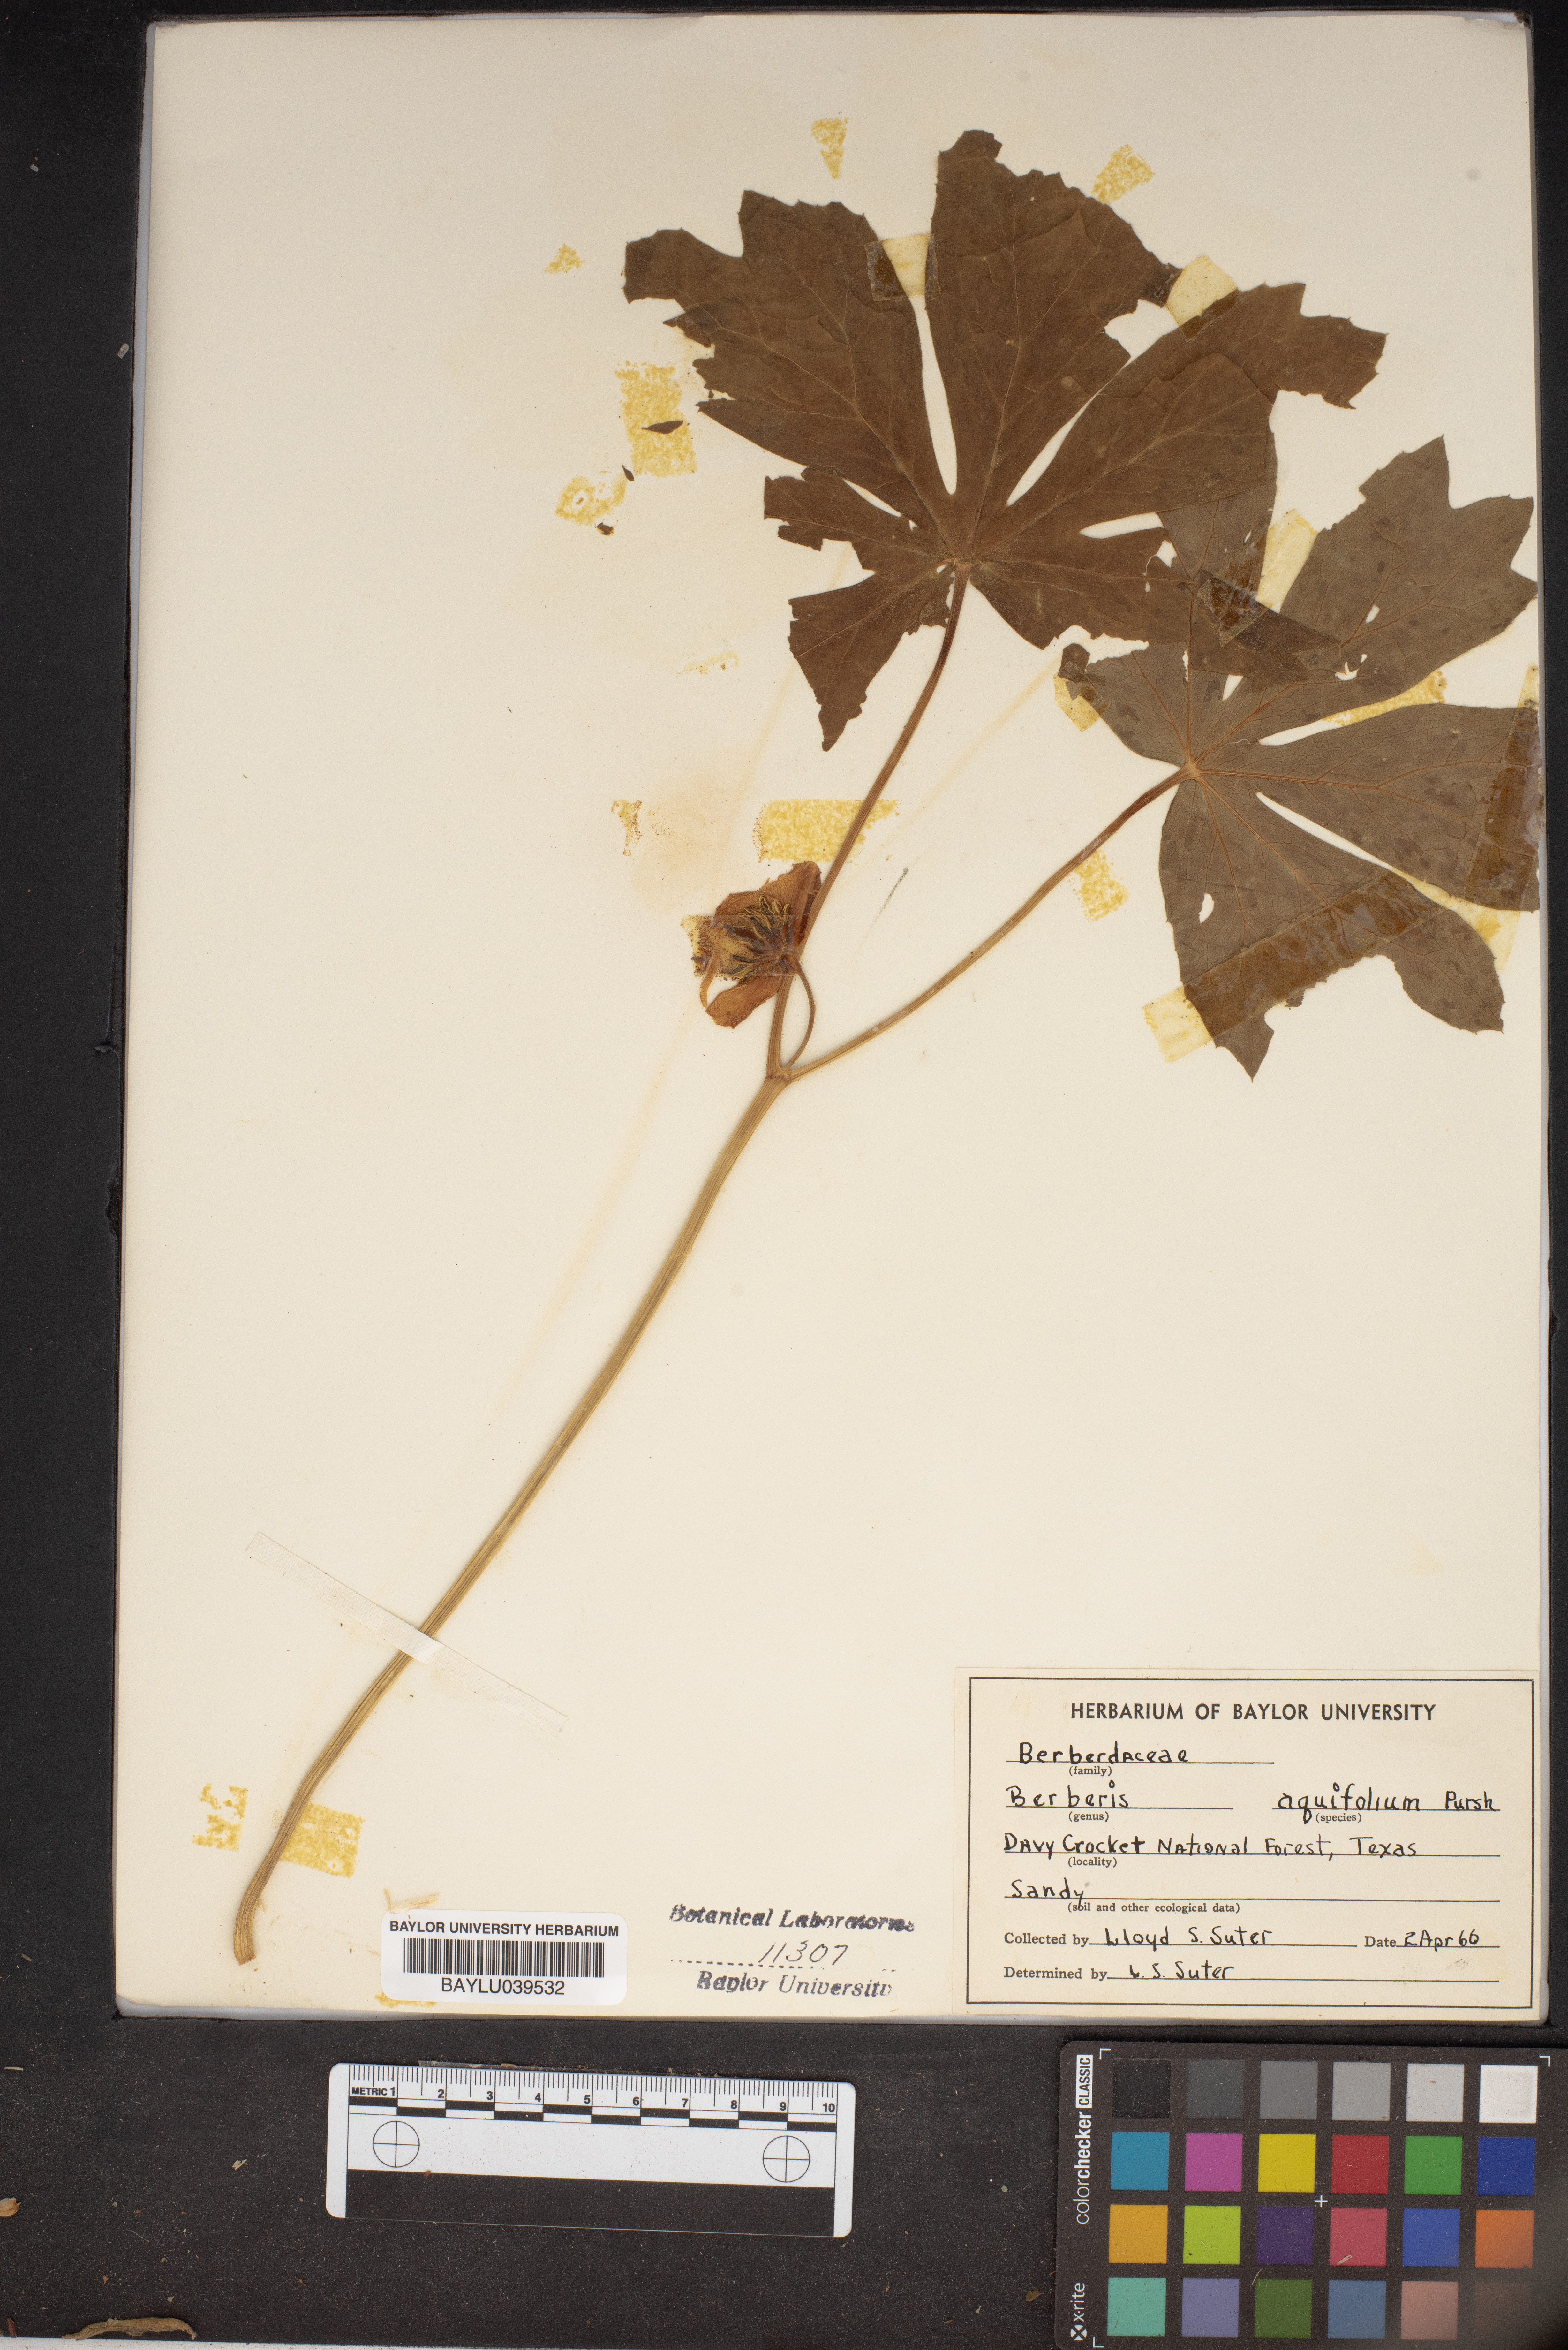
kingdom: Plantae
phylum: Tracheophyta
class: Magnoliopsida
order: Ranunculales
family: Berberidaceae
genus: Mahonia
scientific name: Mahonia aquifolium
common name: Oregon-grape
